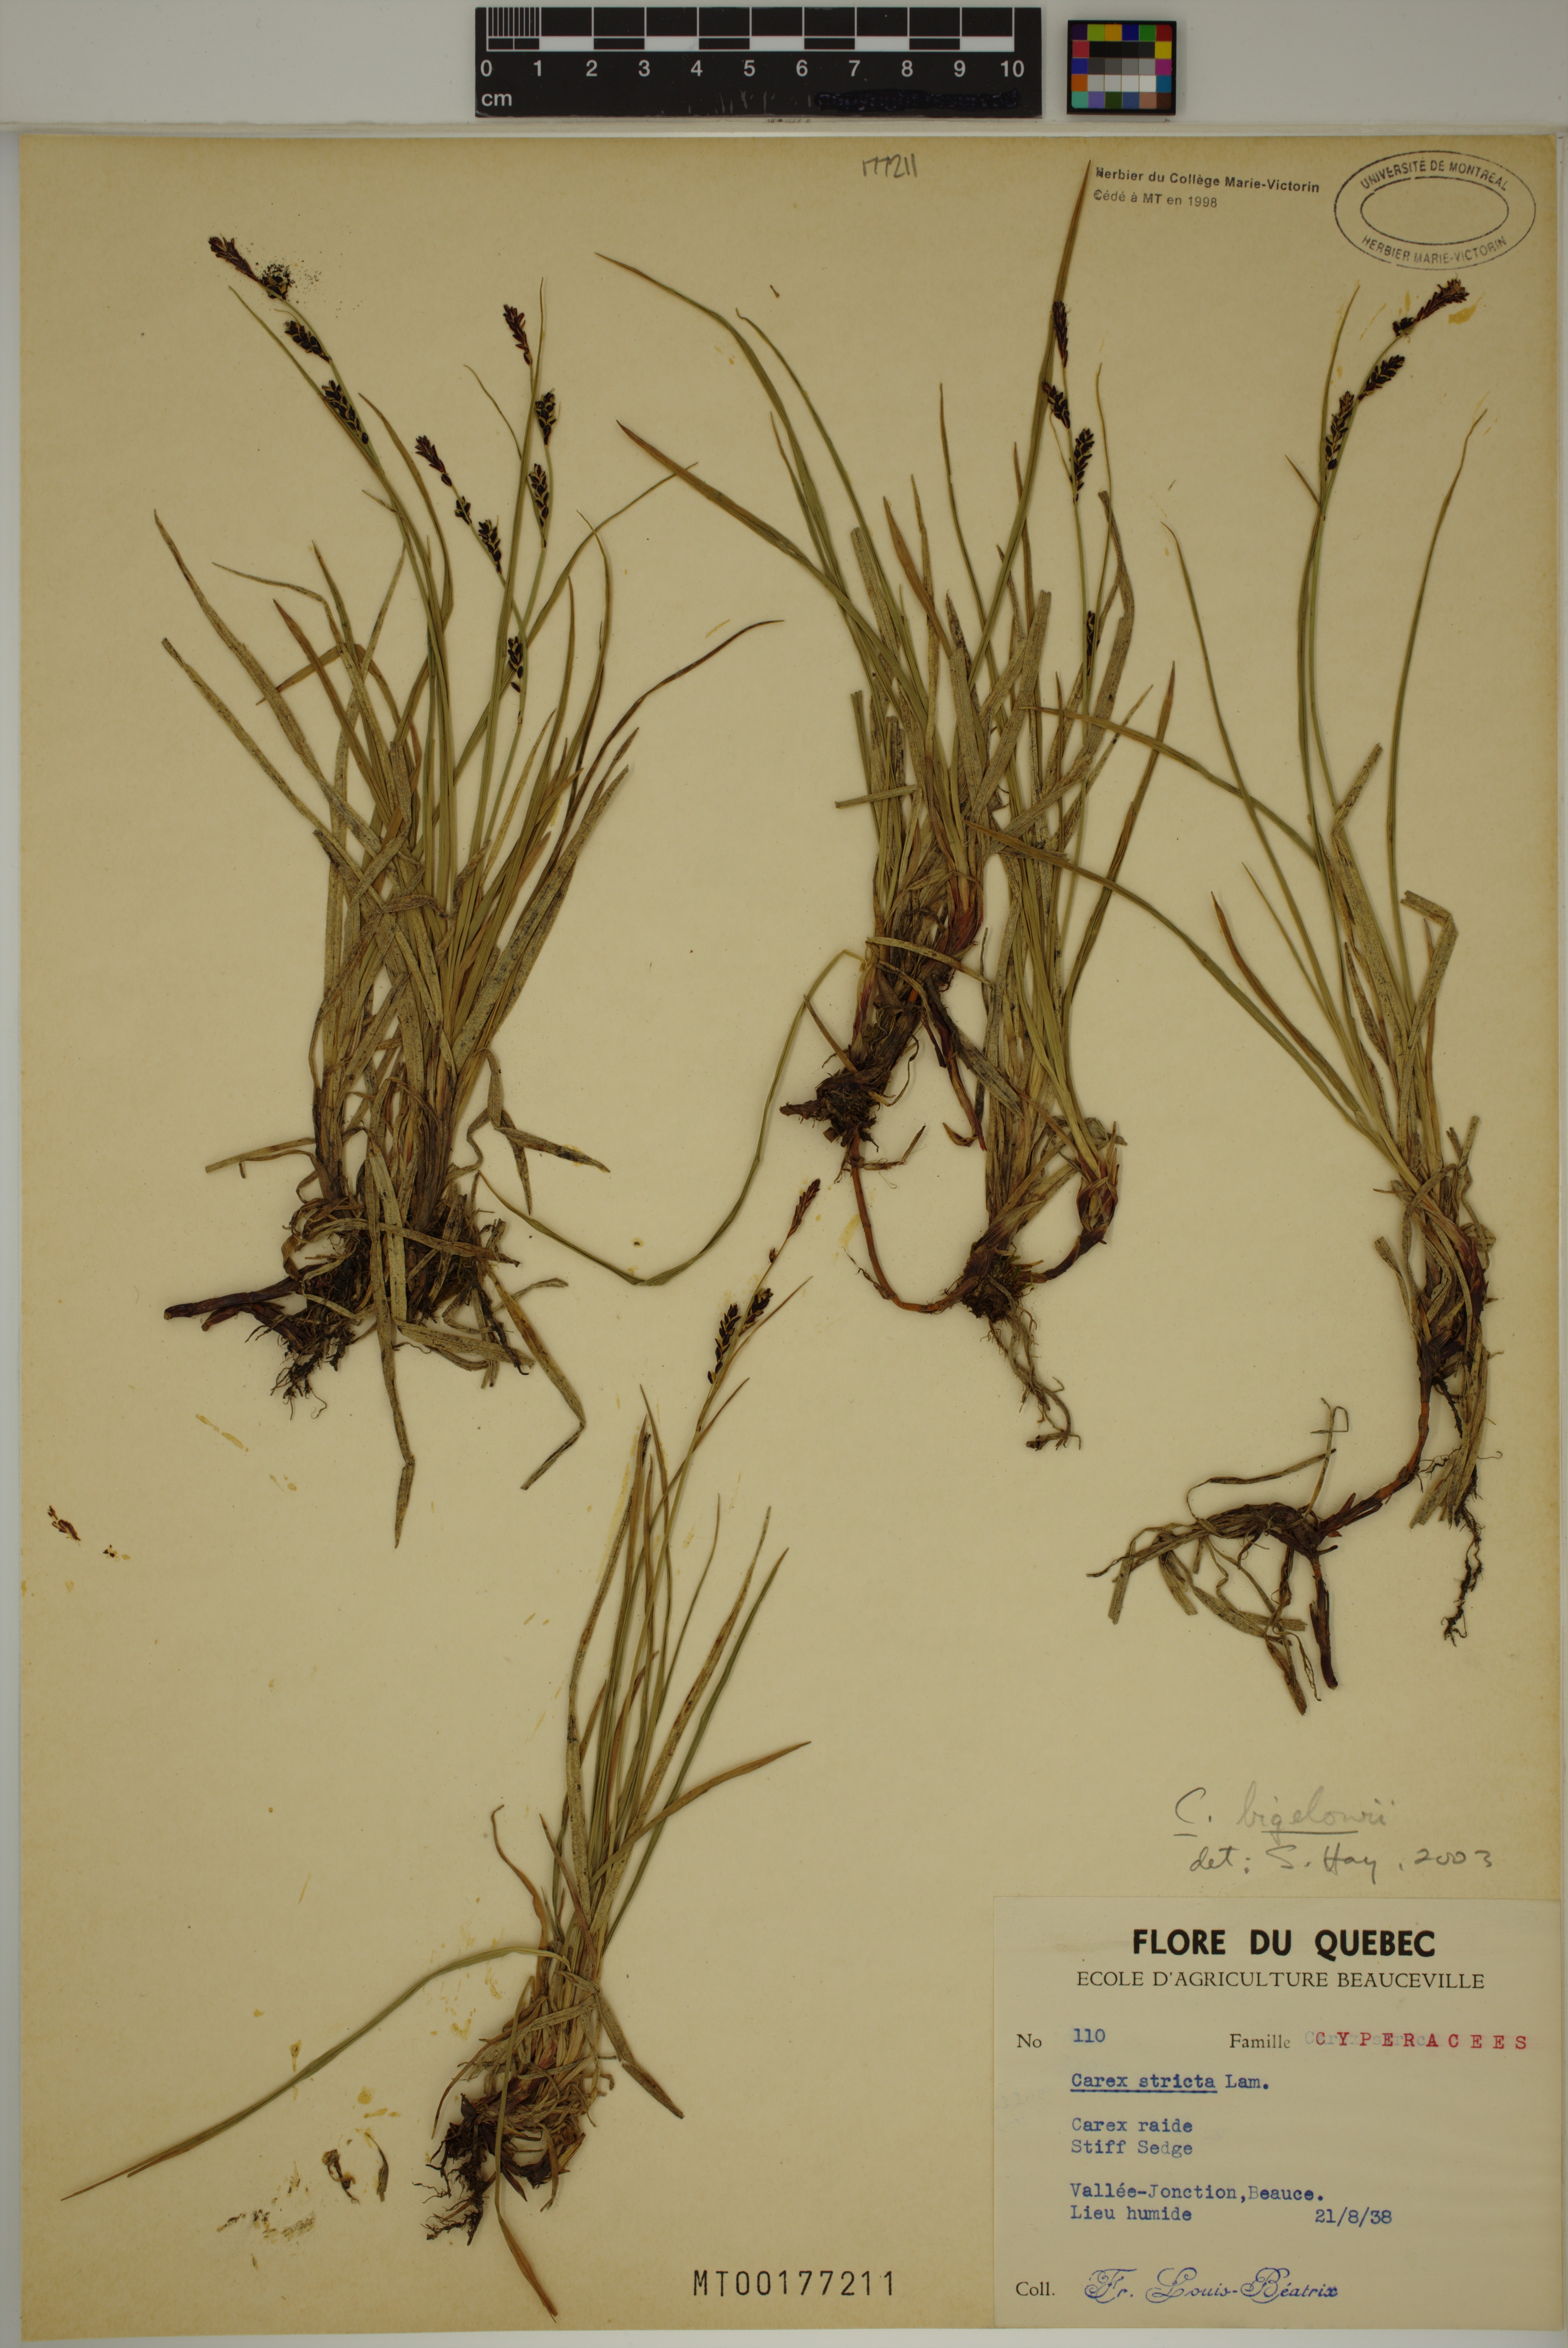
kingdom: Plantae
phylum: Tracheophyta
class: Liliopsida
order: Poales
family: Cyperaceae
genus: Carex
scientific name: Carex bigelowii
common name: Stiff sedge
